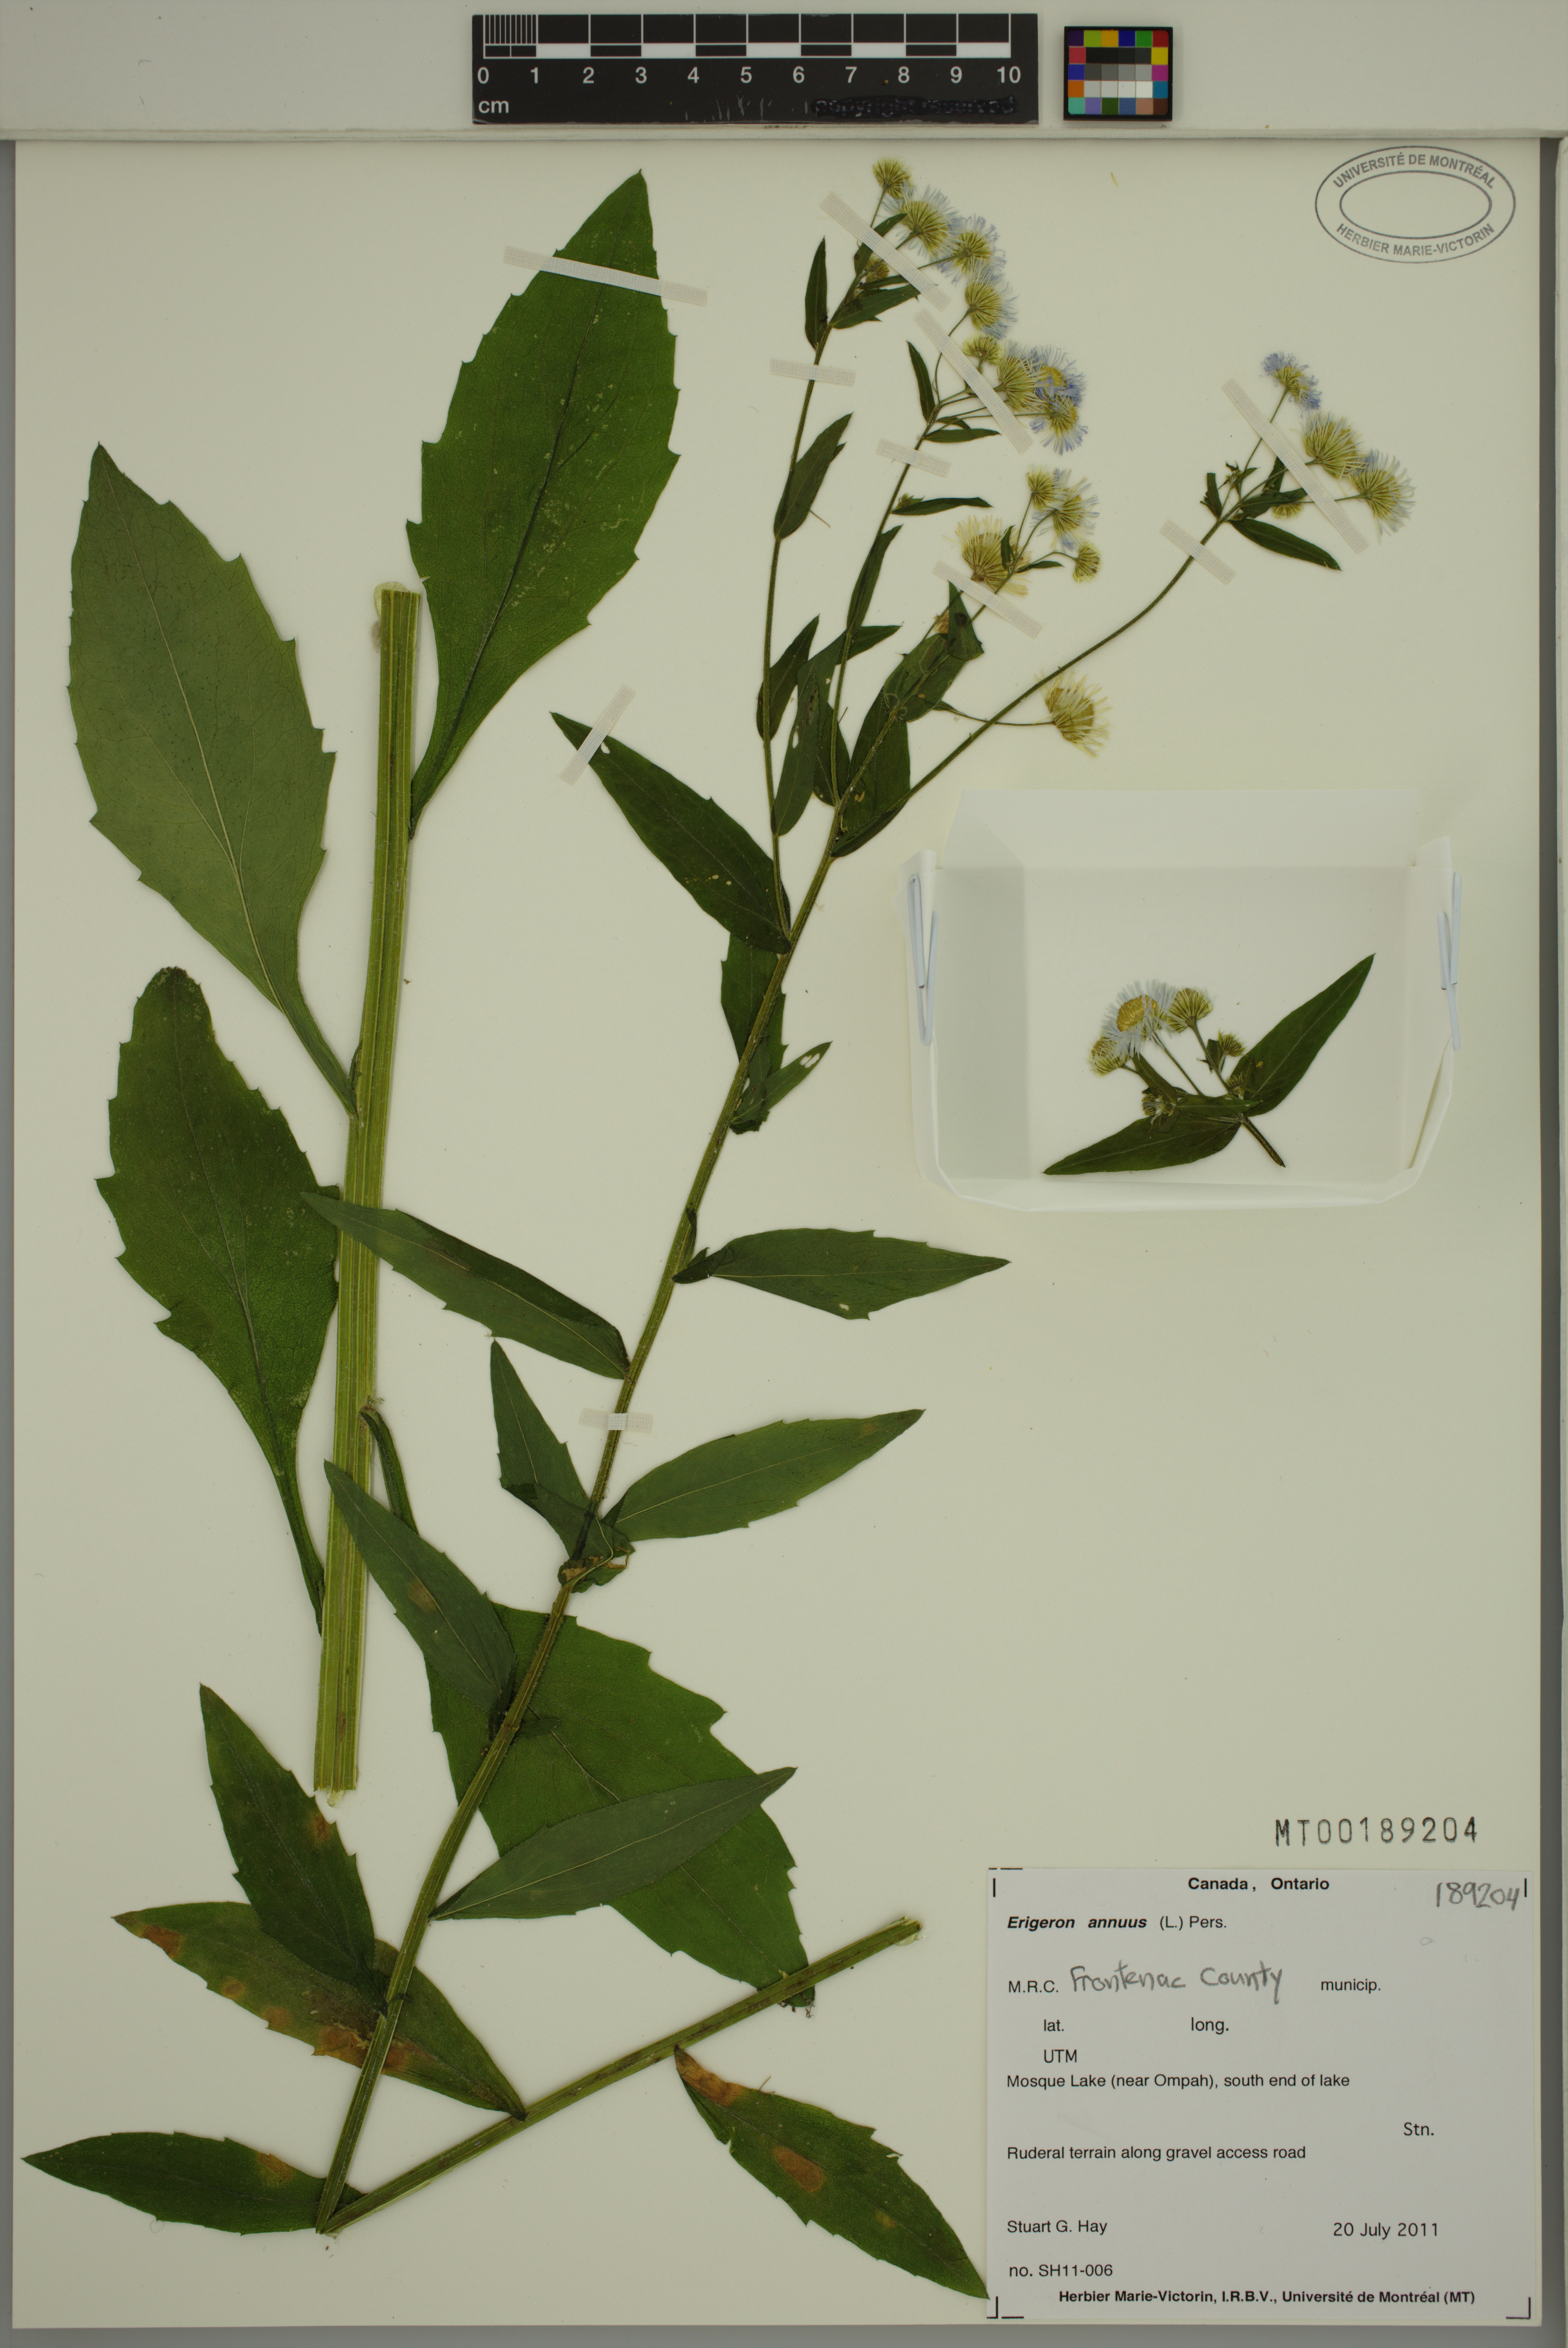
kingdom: Plantae
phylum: Tracheophyta
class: Magnoliopsida
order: Asterales
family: Asteraceae
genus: Erigeron
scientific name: Erigeron annuus
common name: Tall fleabane
